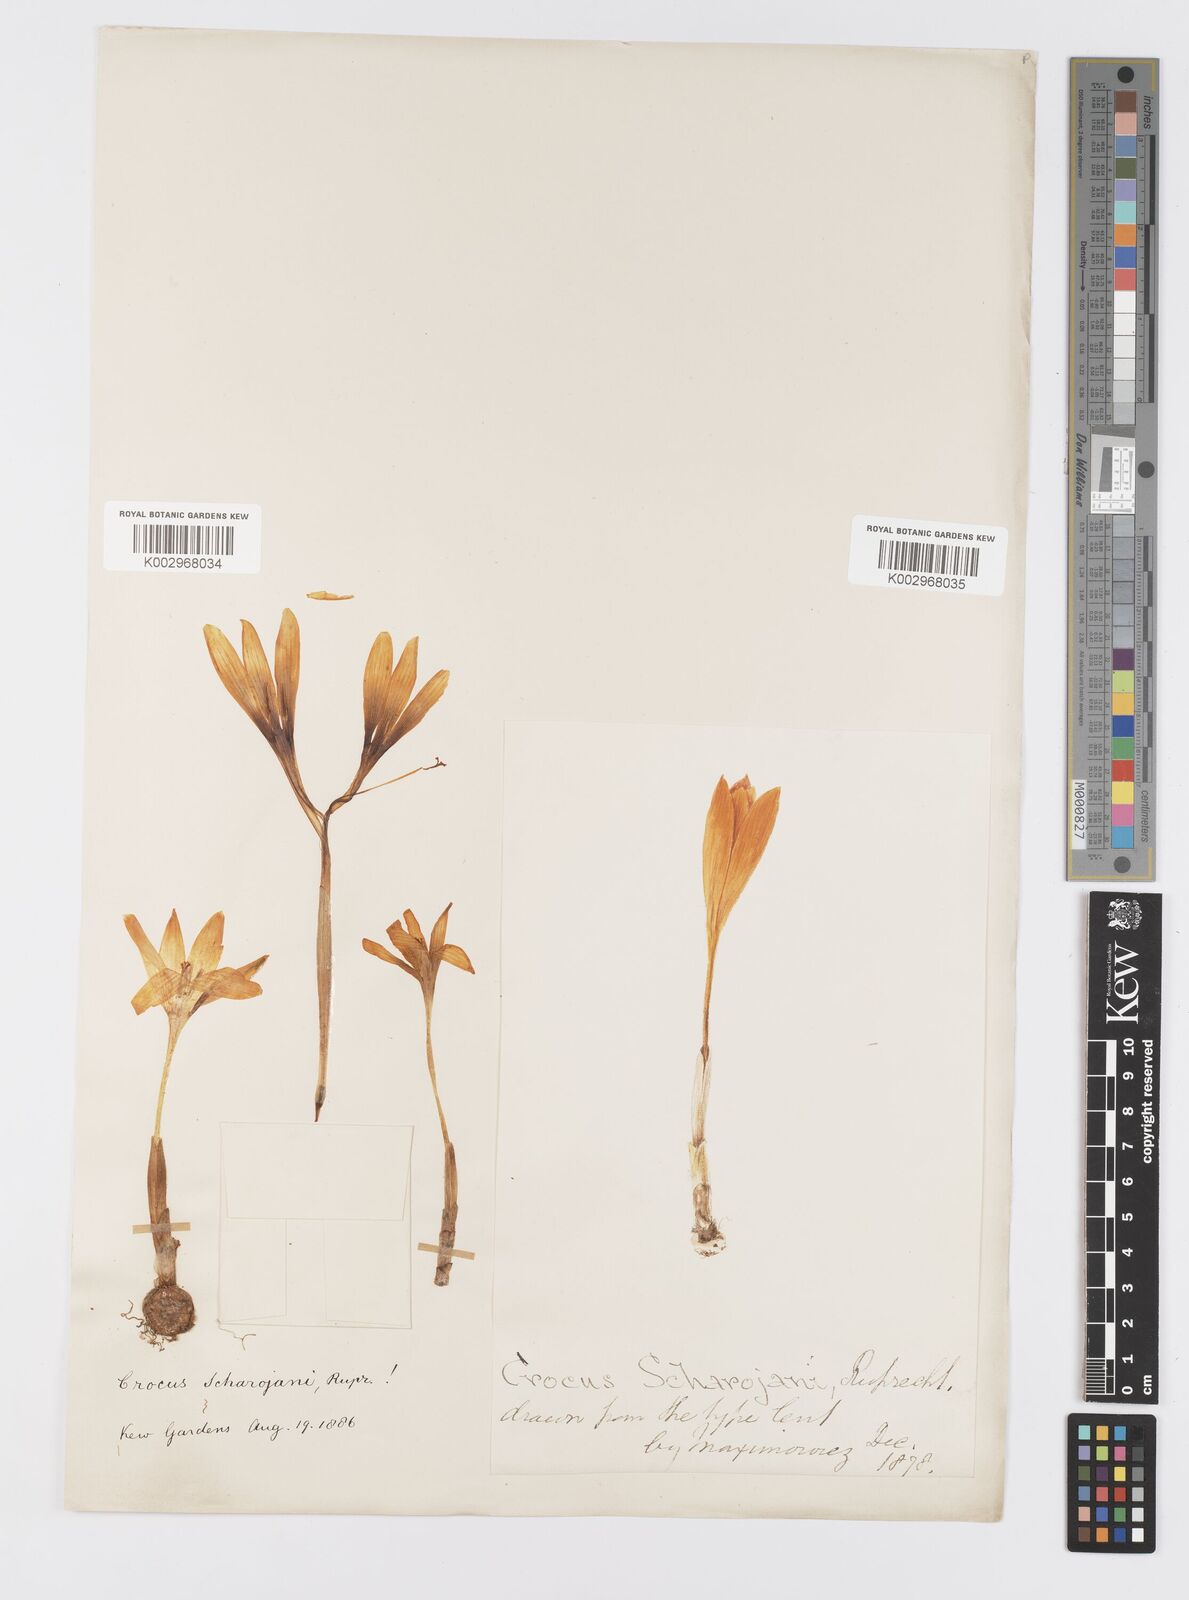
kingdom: Plantae
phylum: Tracheophyta
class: Liliopsida
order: Asparagales
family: Iridaceae
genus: Crocus
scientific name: Crocus lazicus
